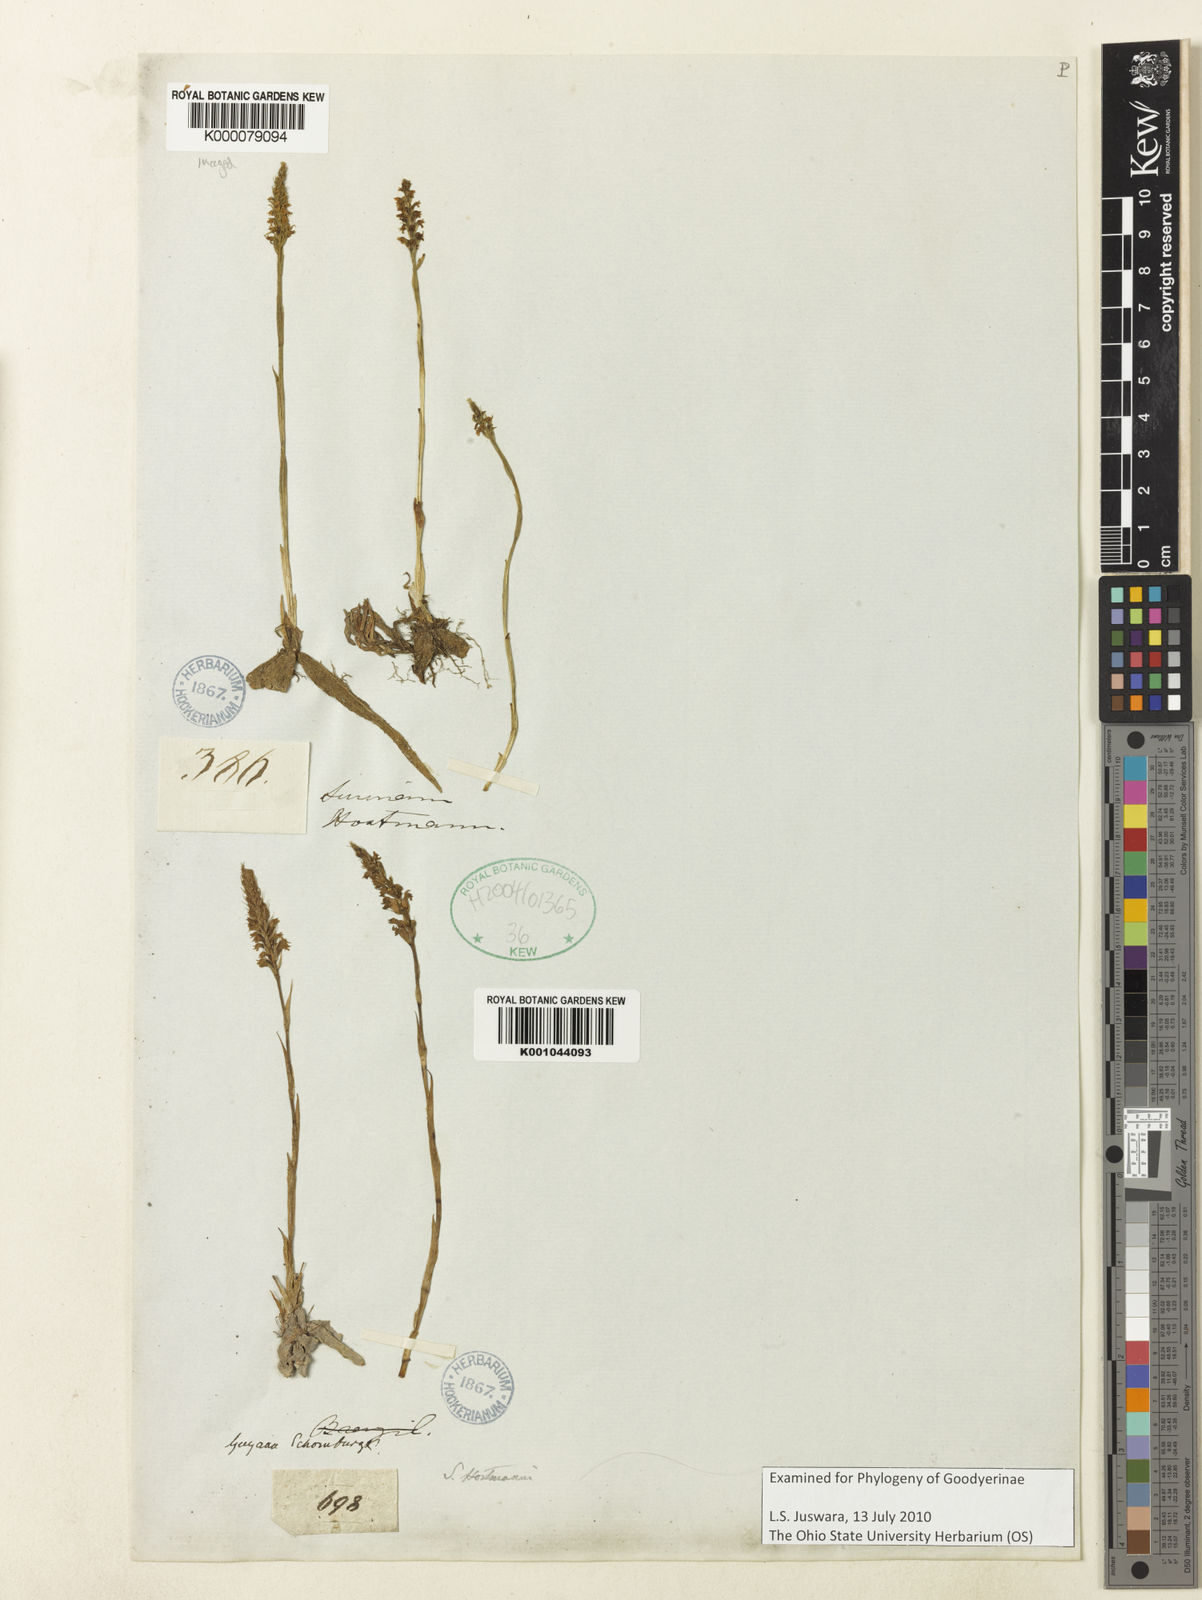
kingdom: Plantae
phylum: Tracheophyta
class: Liliopsida
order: Asparagales
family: Orchidaceae
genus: Brachystele
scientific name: Brachystele
